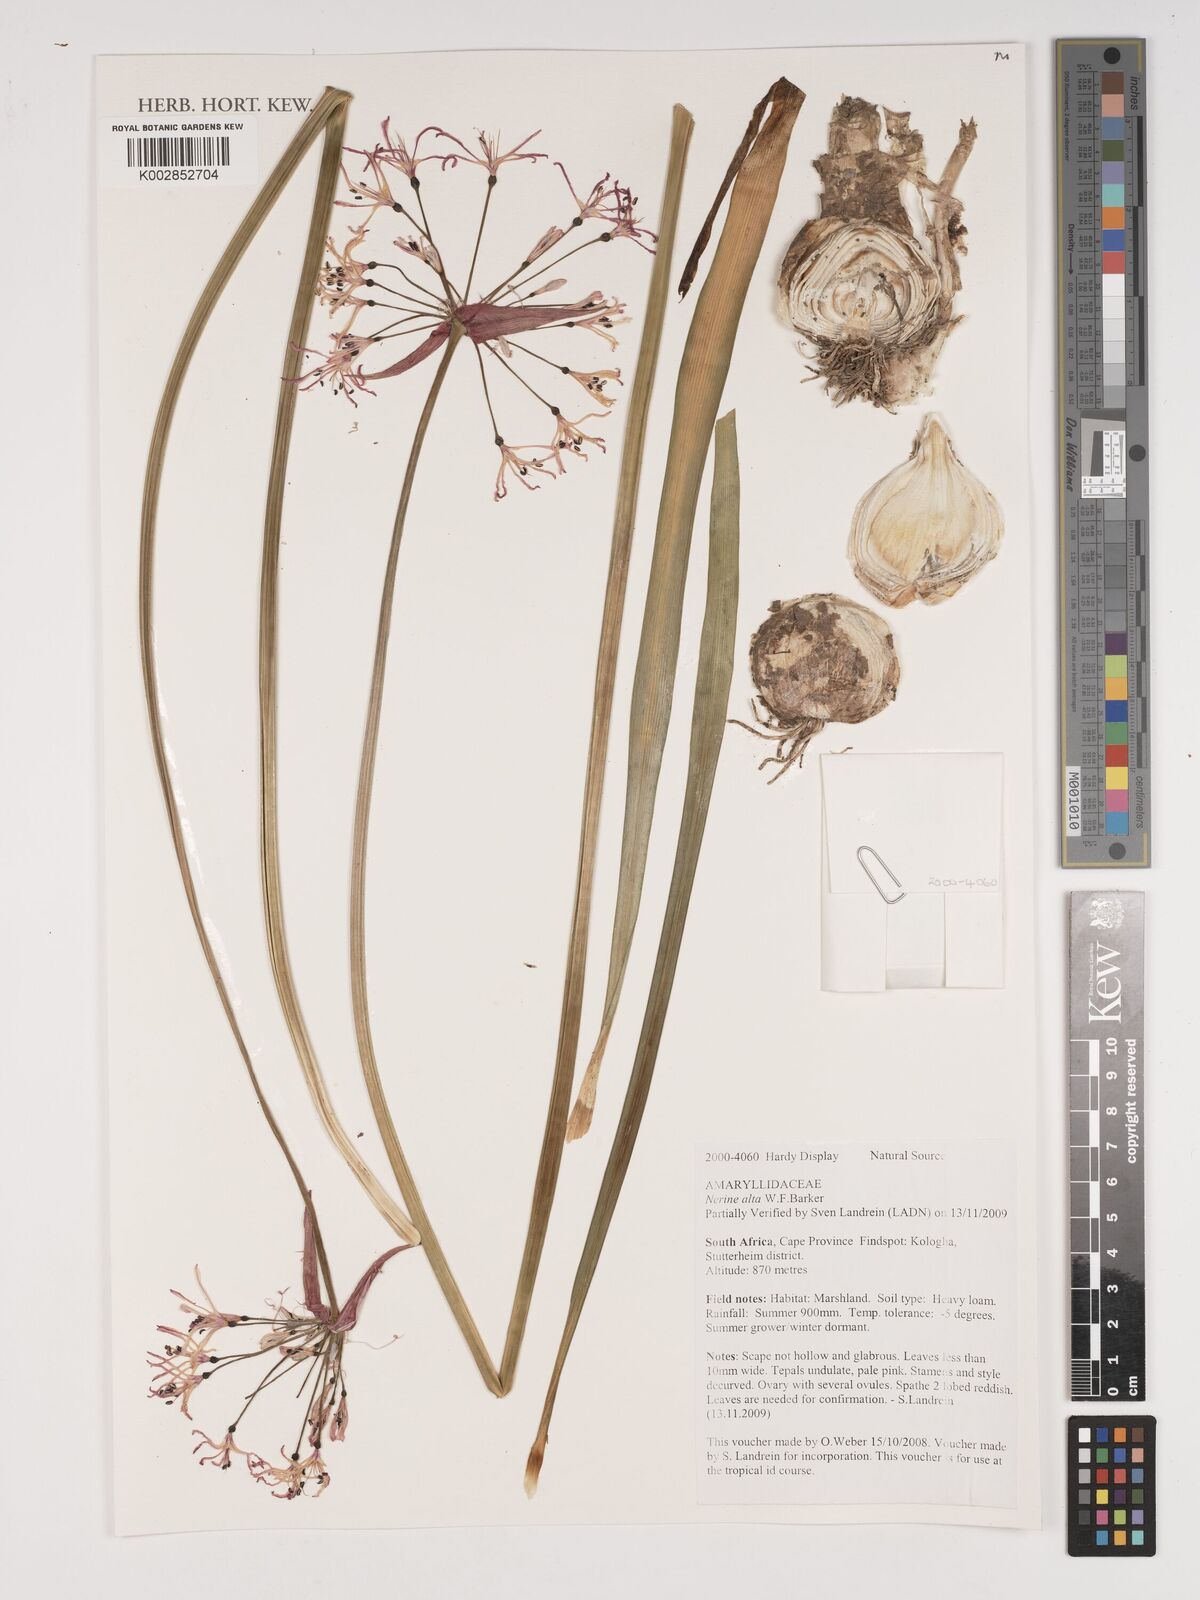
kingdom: Plantae
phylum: Tracheophyta
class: Liliopsida
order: Asparagales
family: Amaryllidaceae
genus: Nerine
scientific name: Nerine undulata
